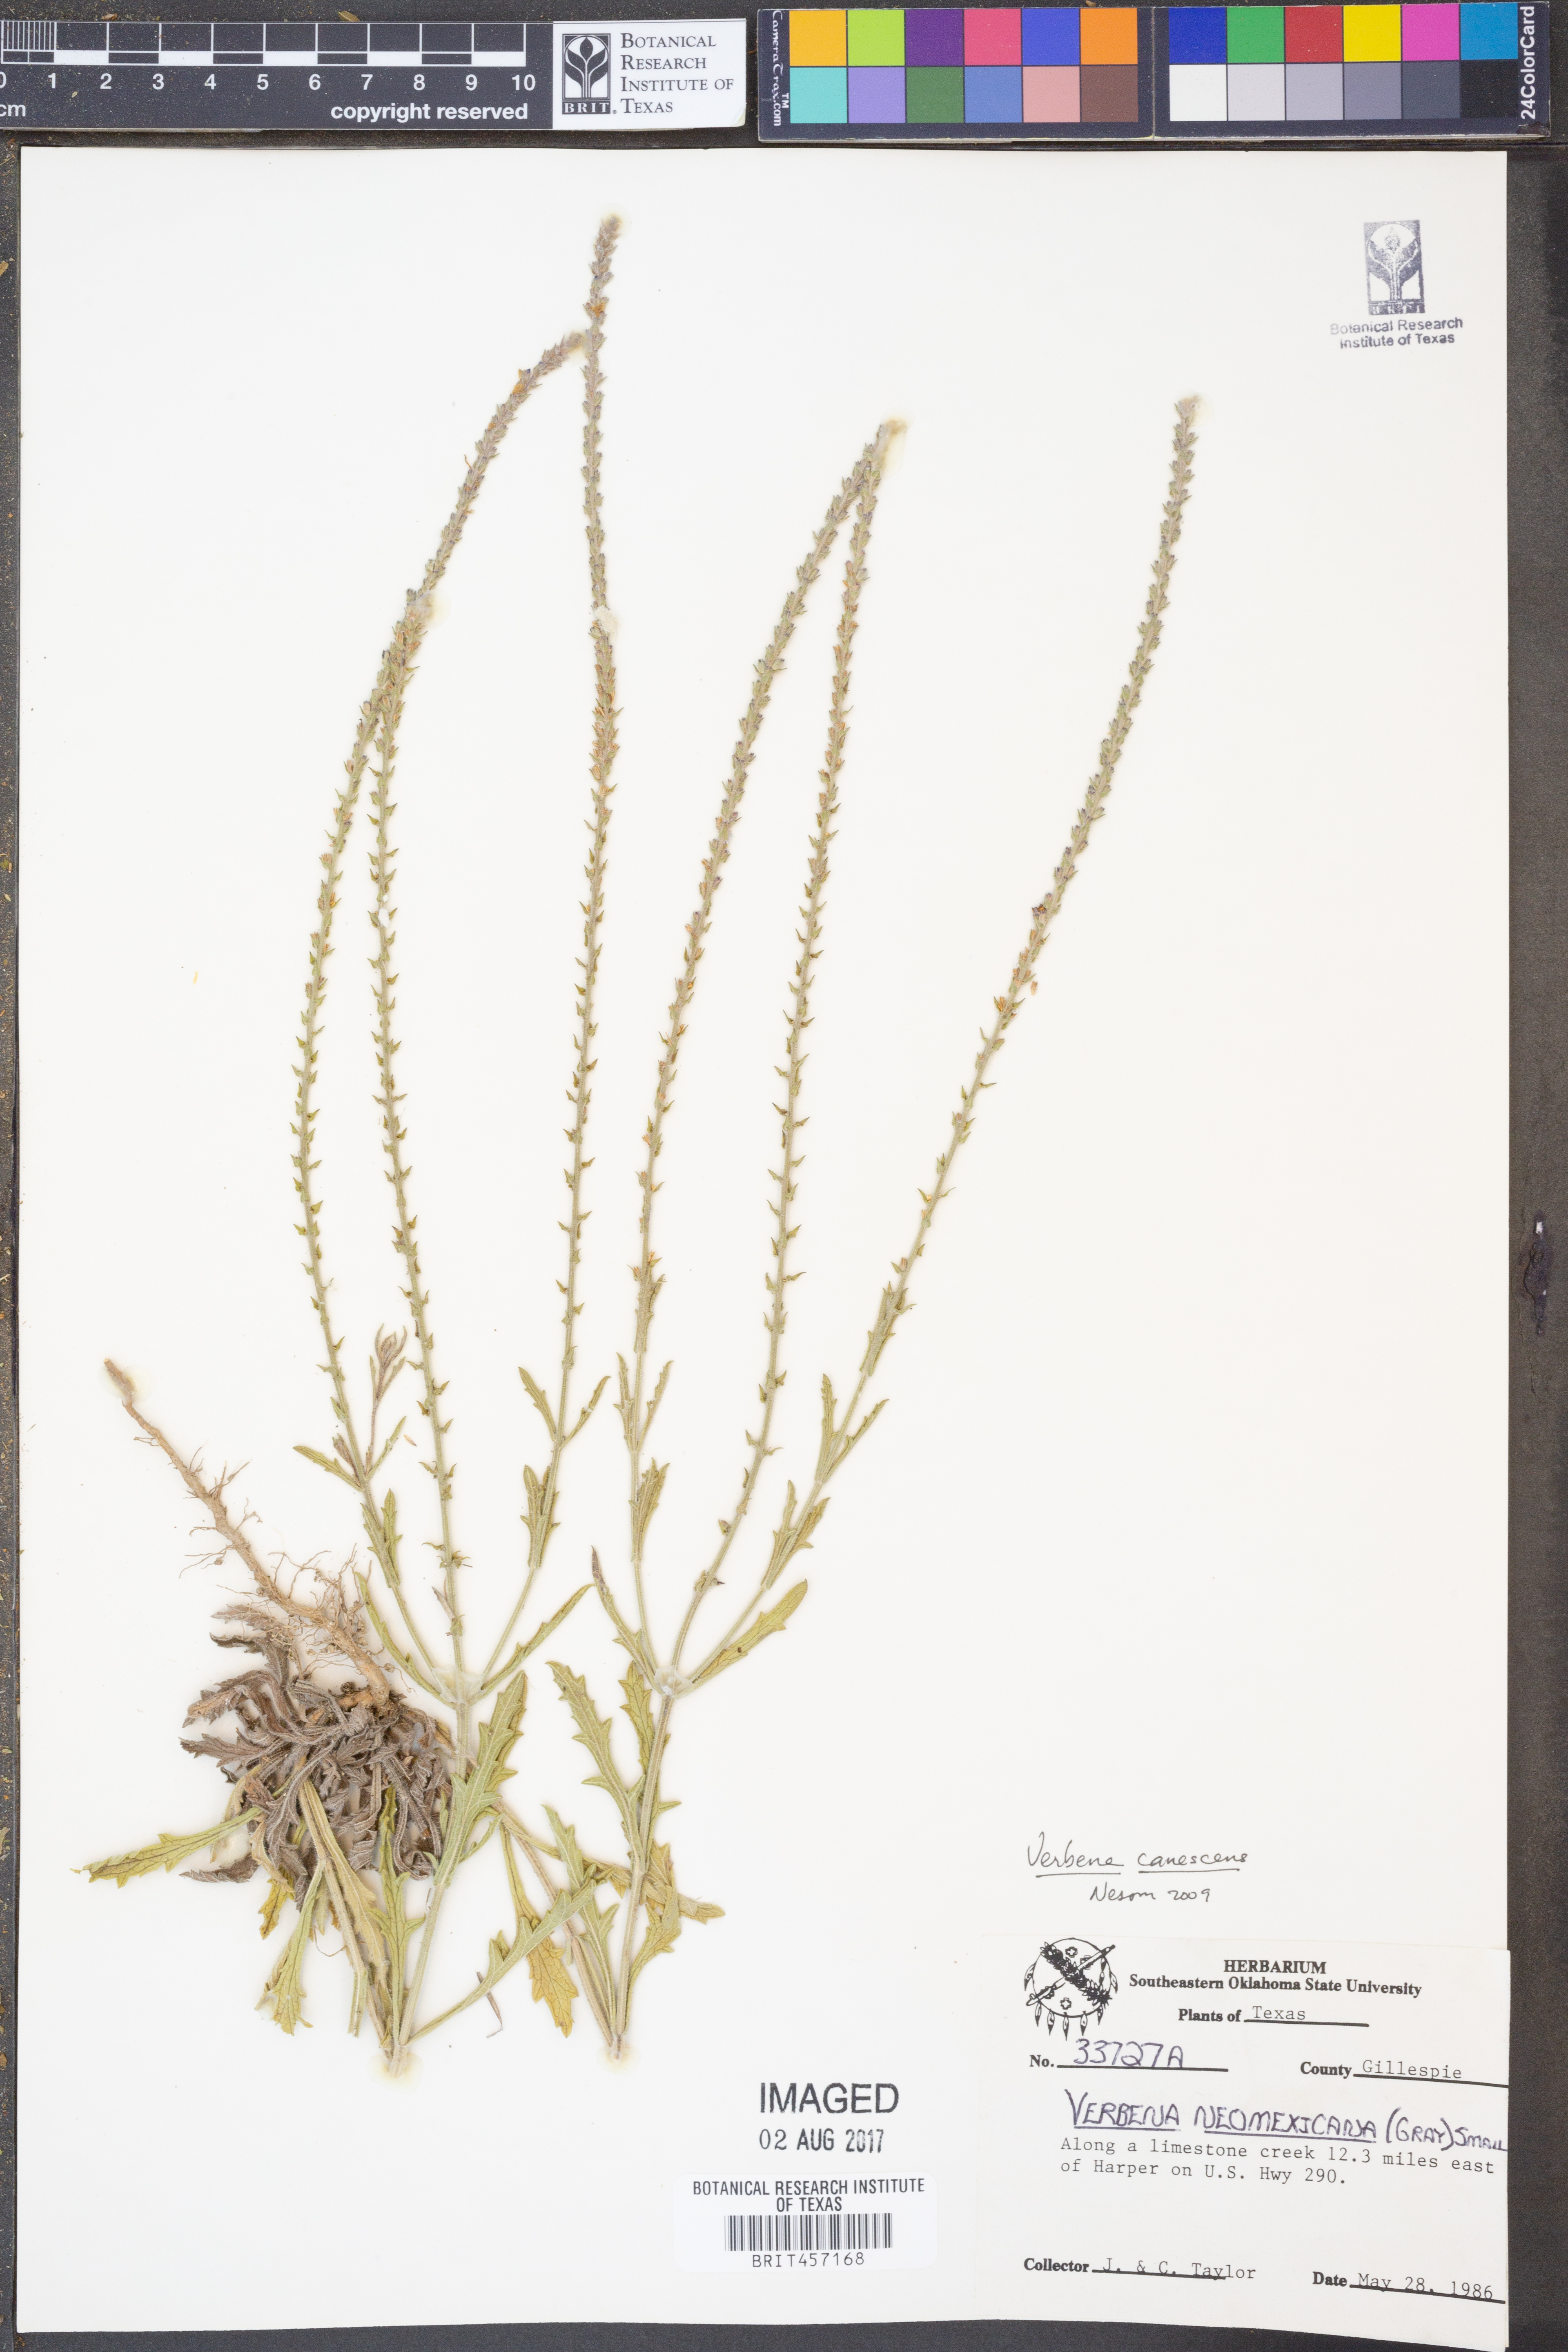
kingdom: Plantae
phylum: Tracheophyta
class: Magnoliopsida
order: Lamiales
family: Verbenaceae
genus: Verbena
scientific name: Verbena canescens
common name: Gray vervain
